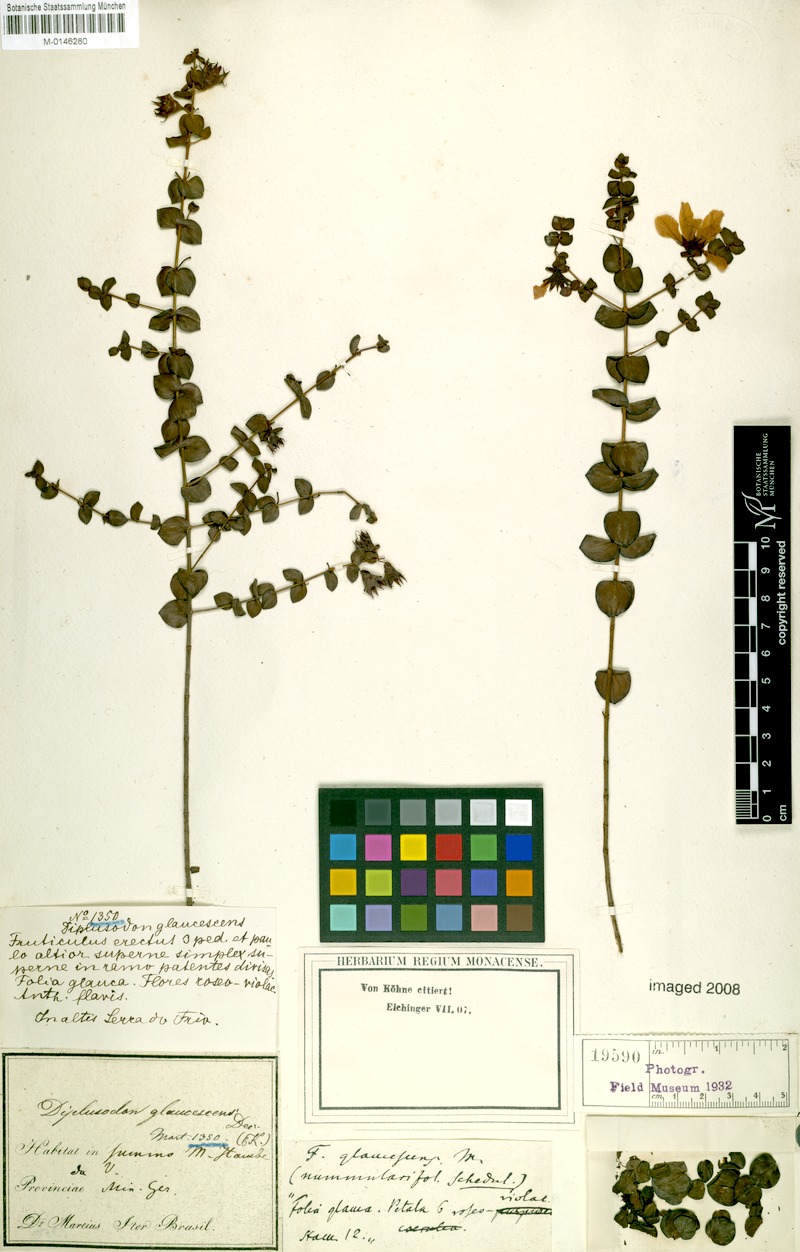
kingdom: Plantae
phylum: Tracheophyta
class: Magnoliopsida
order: Myrtales
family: Lythraceae
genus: Diplusodon
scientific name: Diplusodon glaucescens
